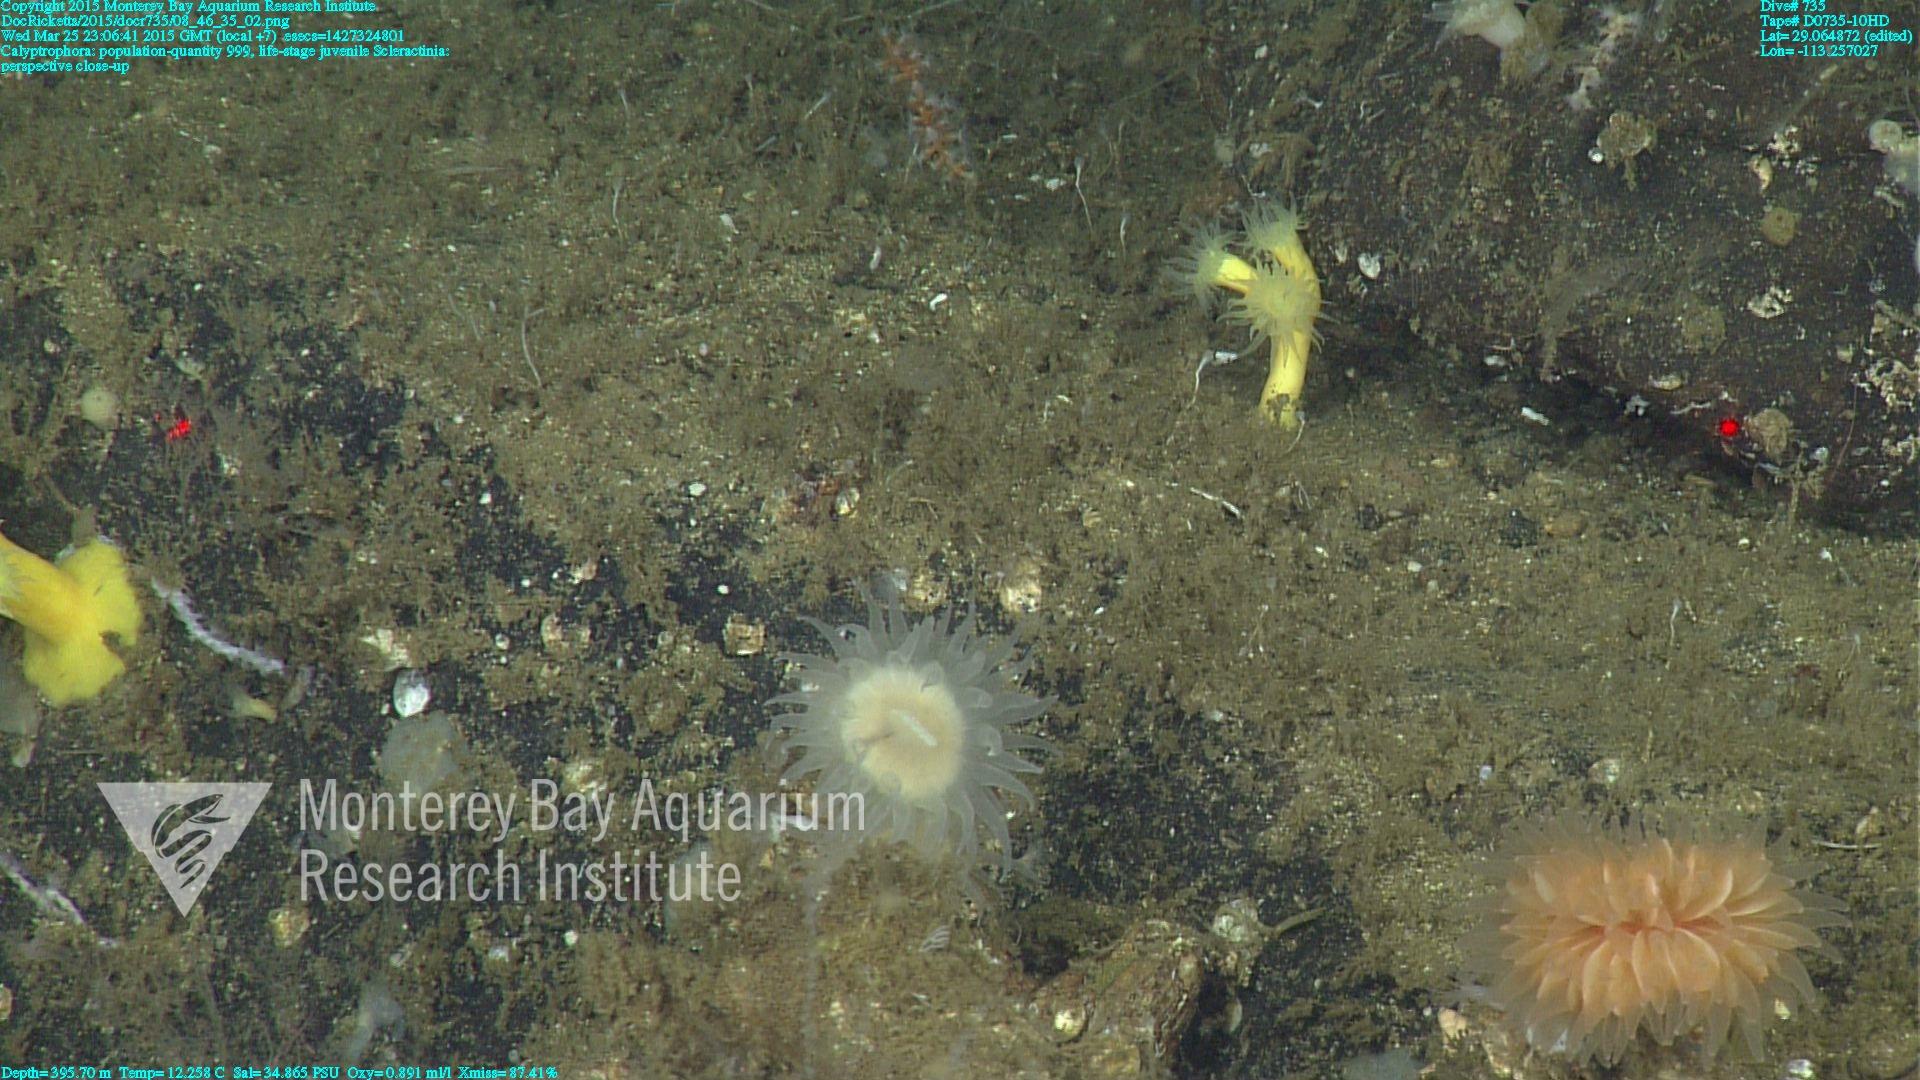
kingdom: Animalia
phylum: Cnidaria
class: Anthozoa
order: Scleralcyonacea
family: Primnoidae
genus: Calyptrophora
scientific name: Calyptrophora
